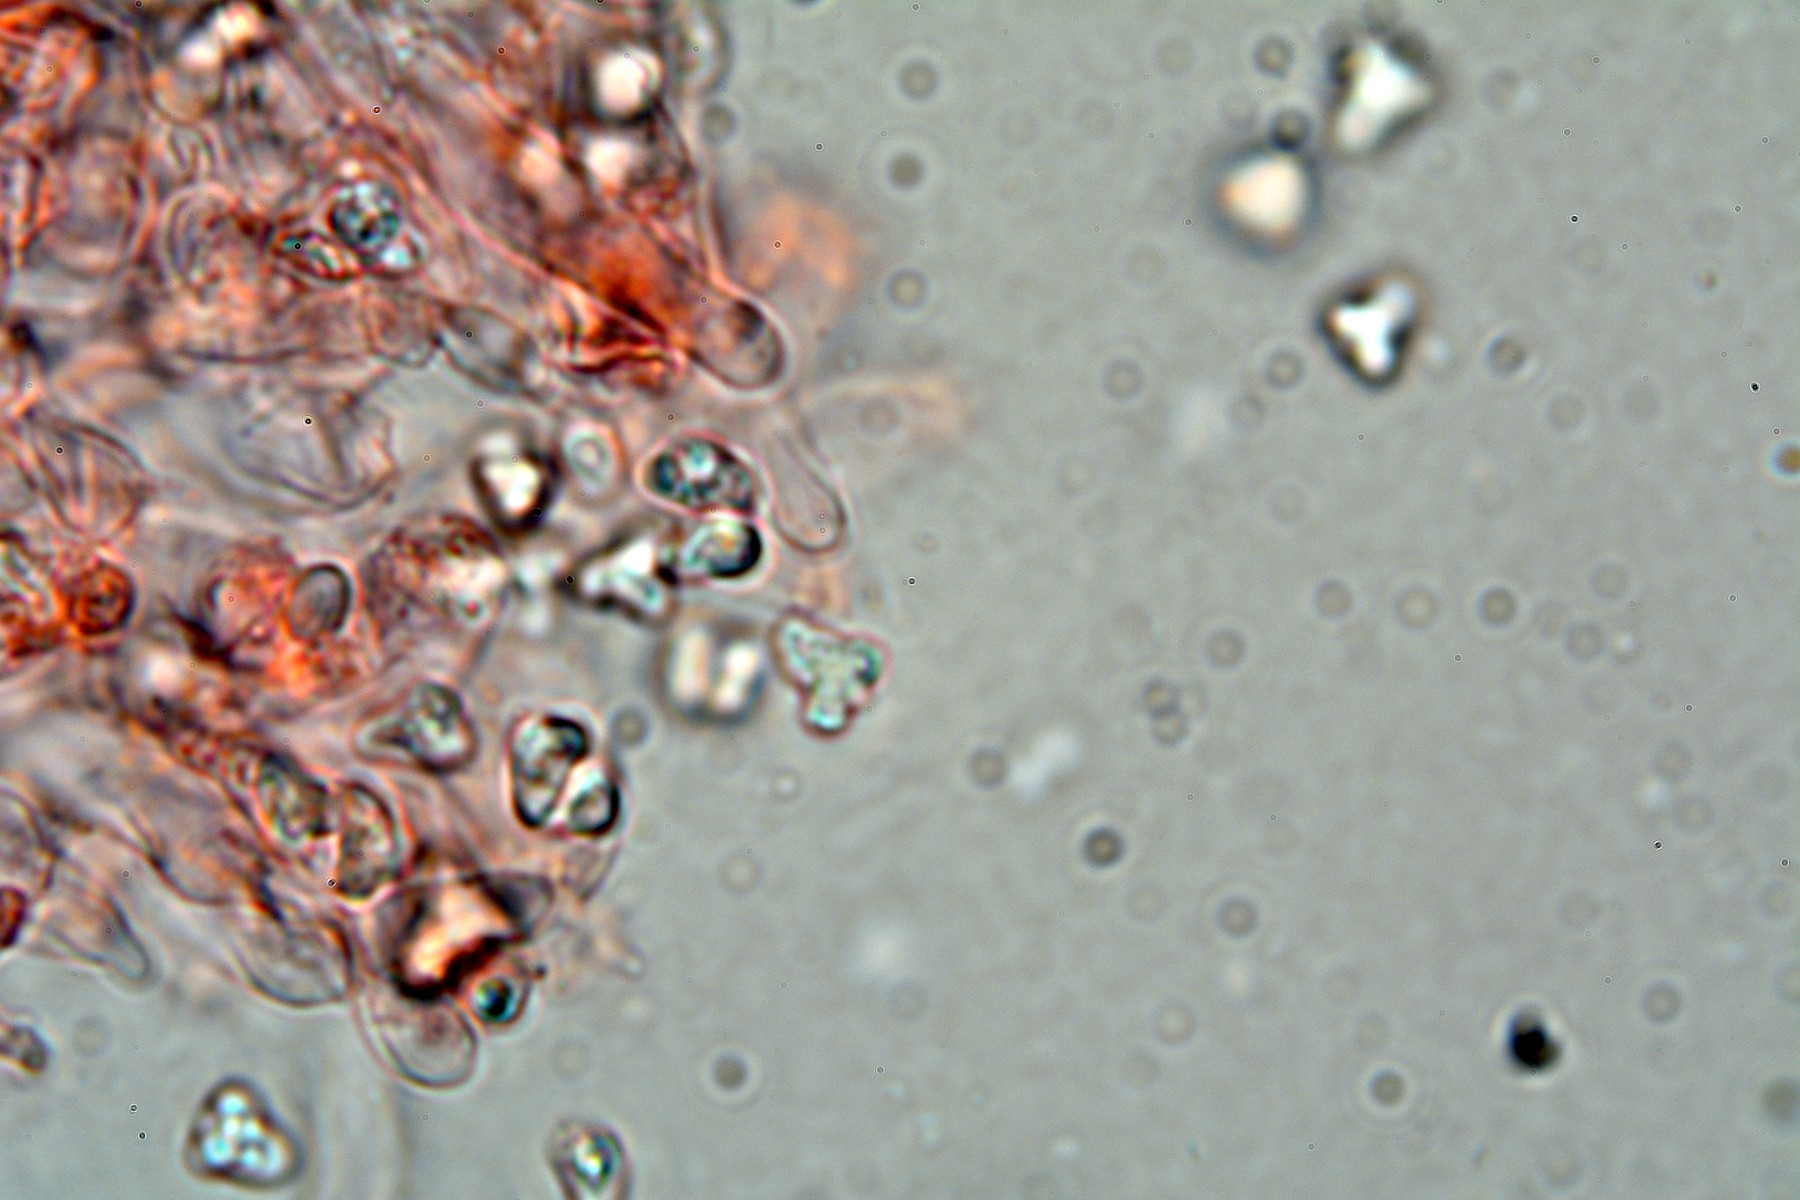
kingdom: Fungi
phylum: Basidiomycota
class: Agaricomycetes
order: Atheliales
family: Atheliaceae
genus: Tylospora
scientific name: Tylospora asterophora
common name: hjertesporet jordhinde
